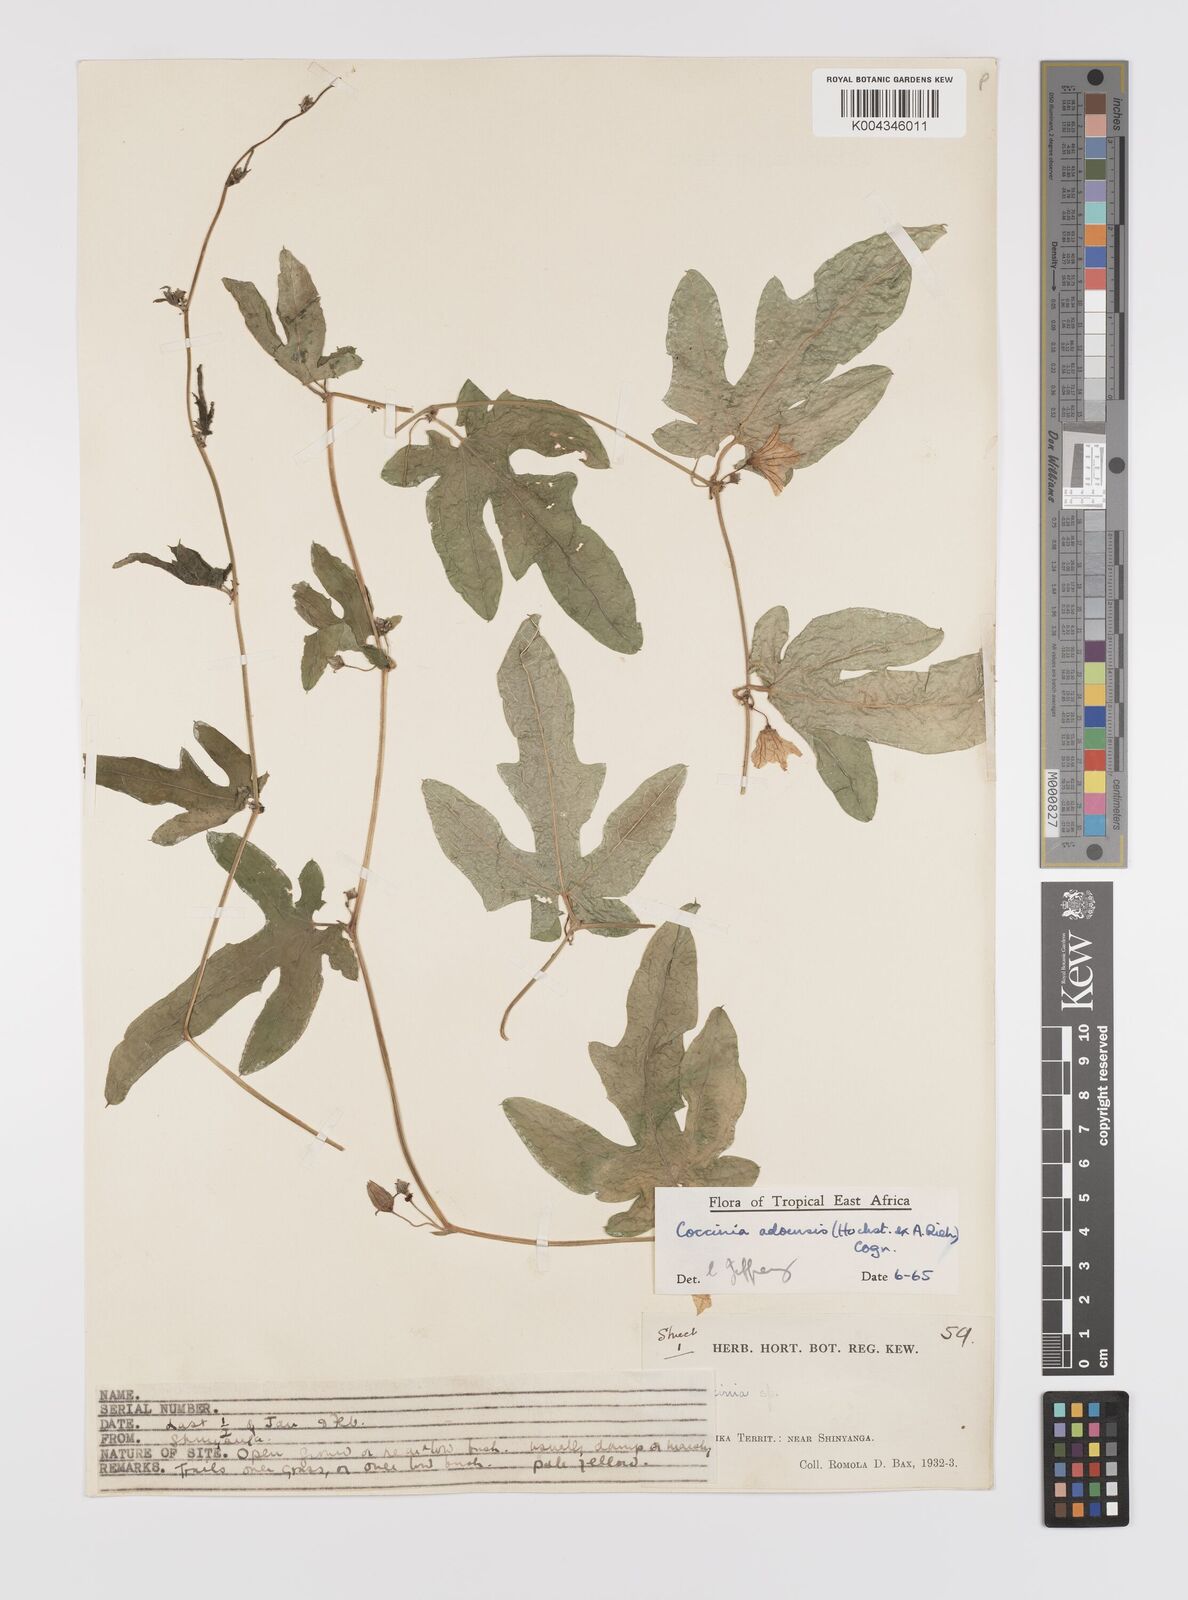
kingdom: Plantae
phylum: Tracheophyta
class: Magnoliopsida
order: Cucurbitales
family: Cucurbitaceae
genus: Coccinia
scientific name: Coccinia adoensis
